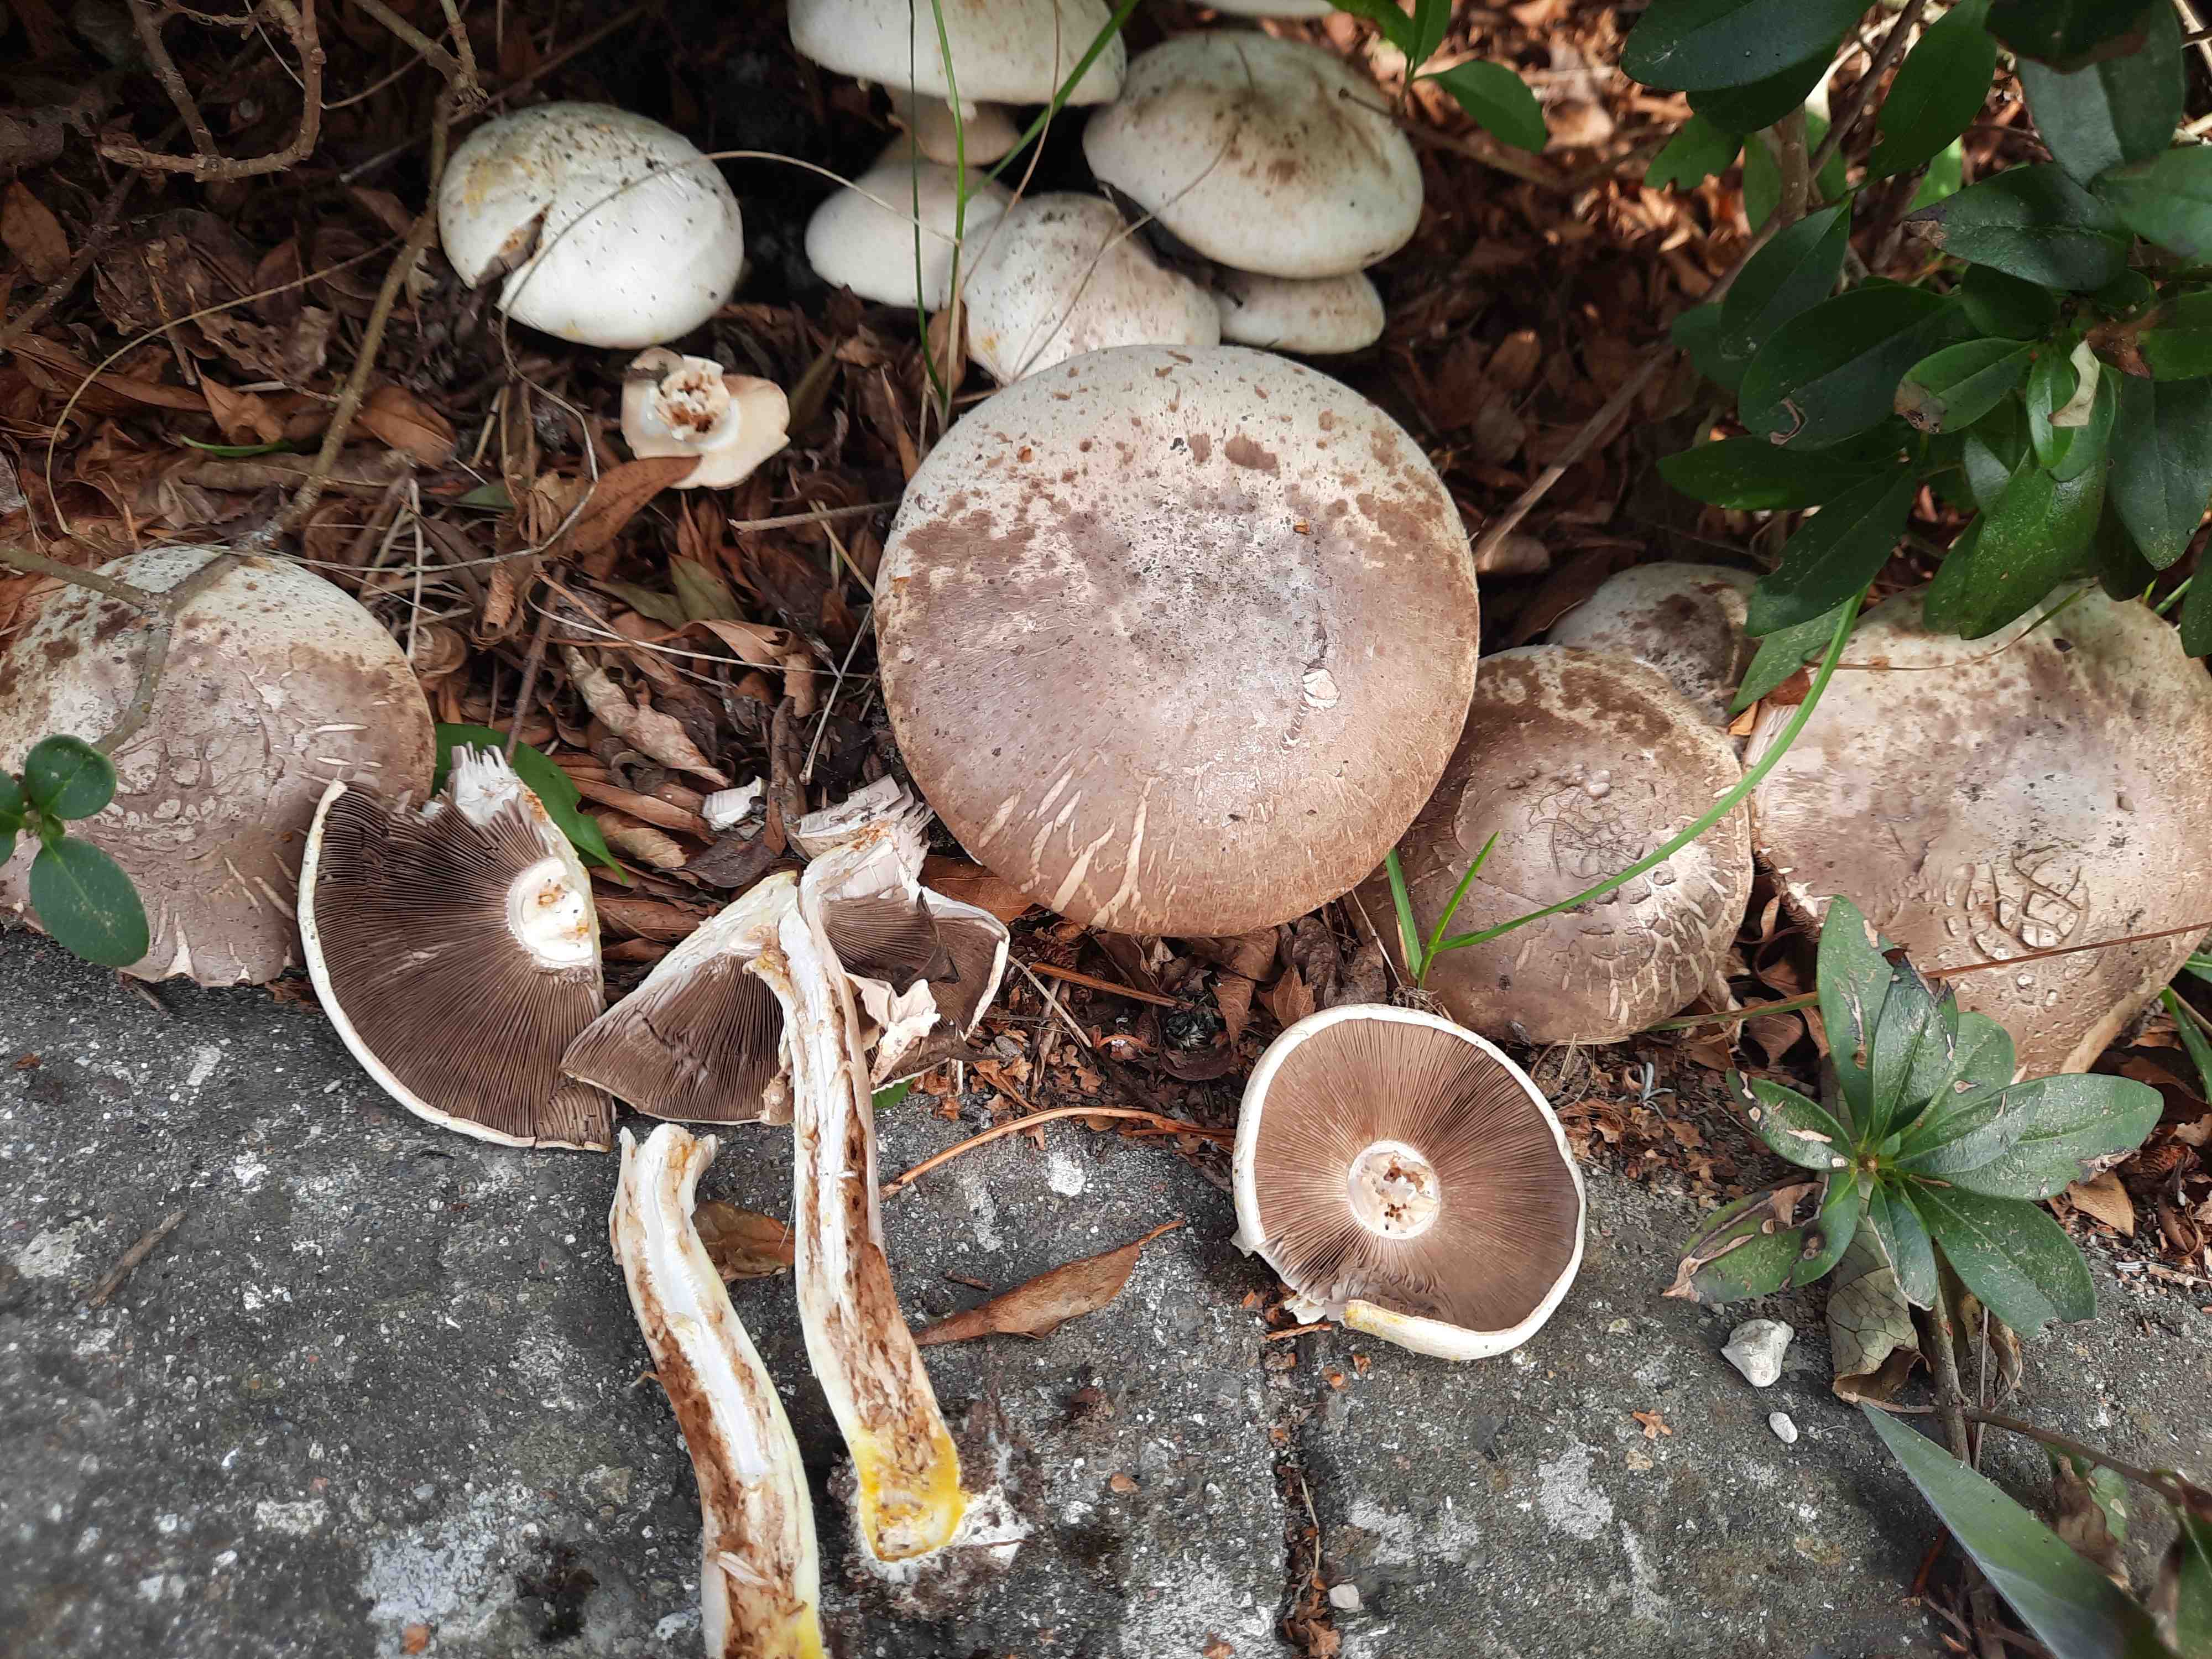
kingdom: Fungi
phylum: Basidiomycota
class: Agaricomycetes
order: Agaricales
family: Agaricaceae
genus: Agaricus
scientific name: Agaricus xanthodermus
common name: karbol-champignon
